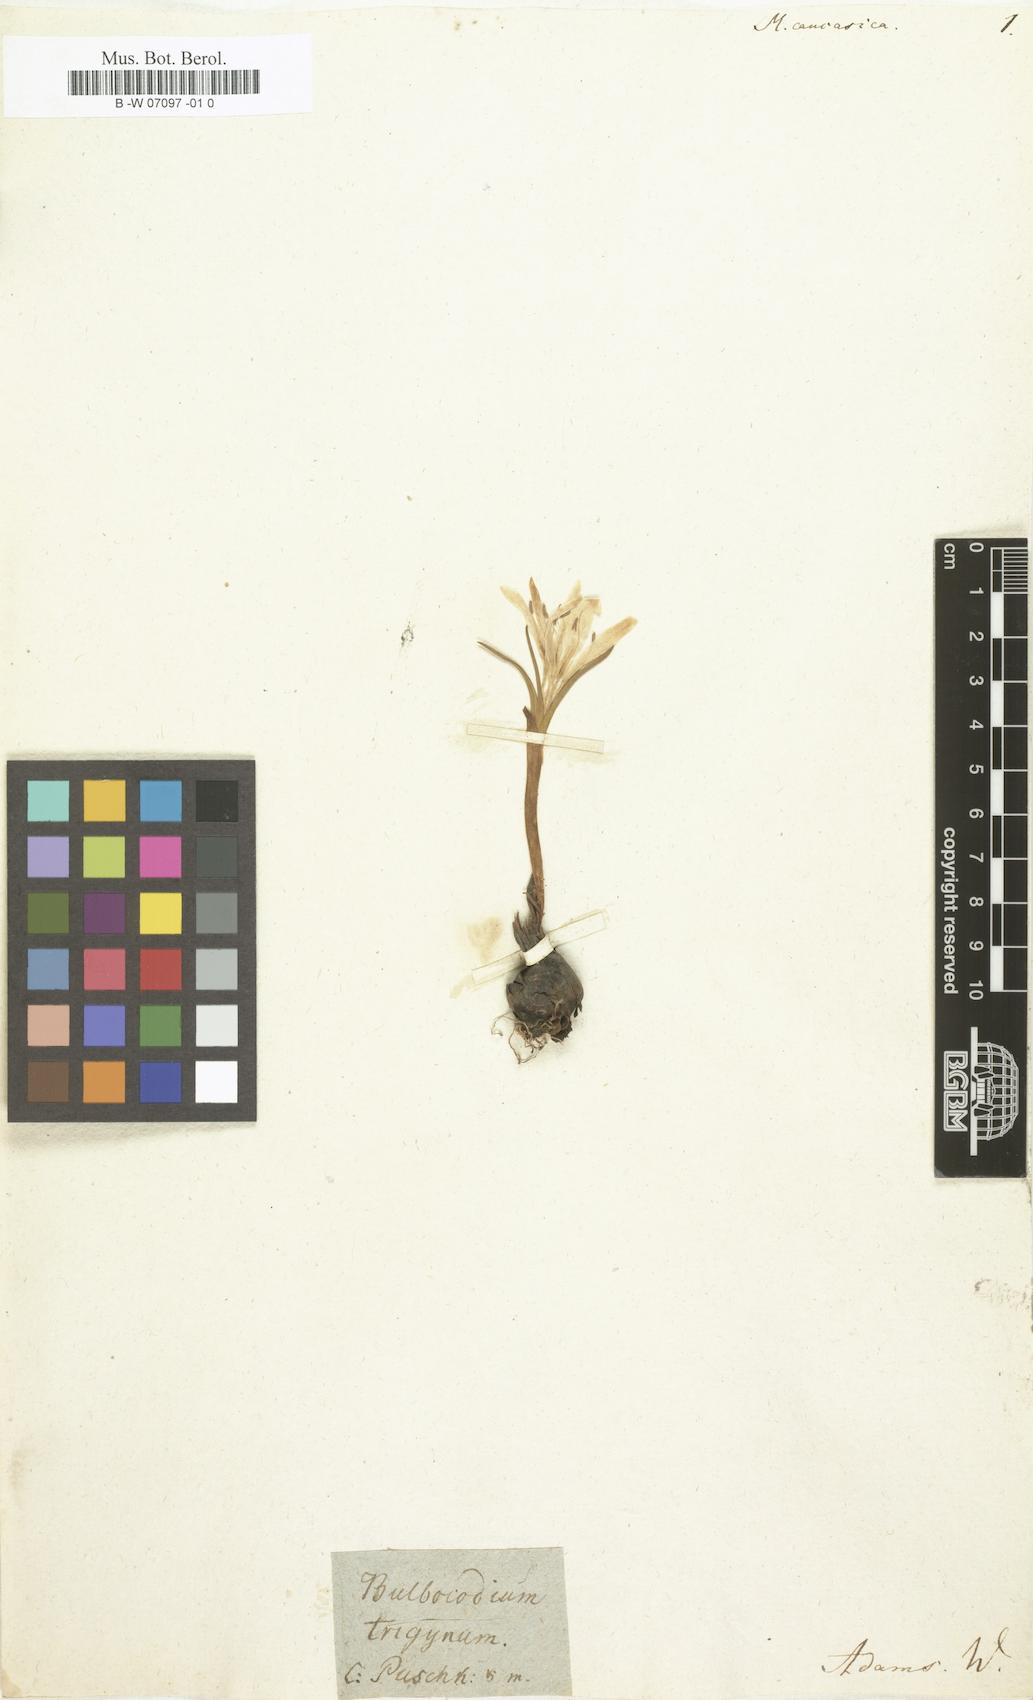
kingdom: Plantae
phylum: Tracheophyta
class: Liliopsida
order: Liliales
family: Colchicaceae
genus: Colchicum
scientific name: Colchicum trigynum
